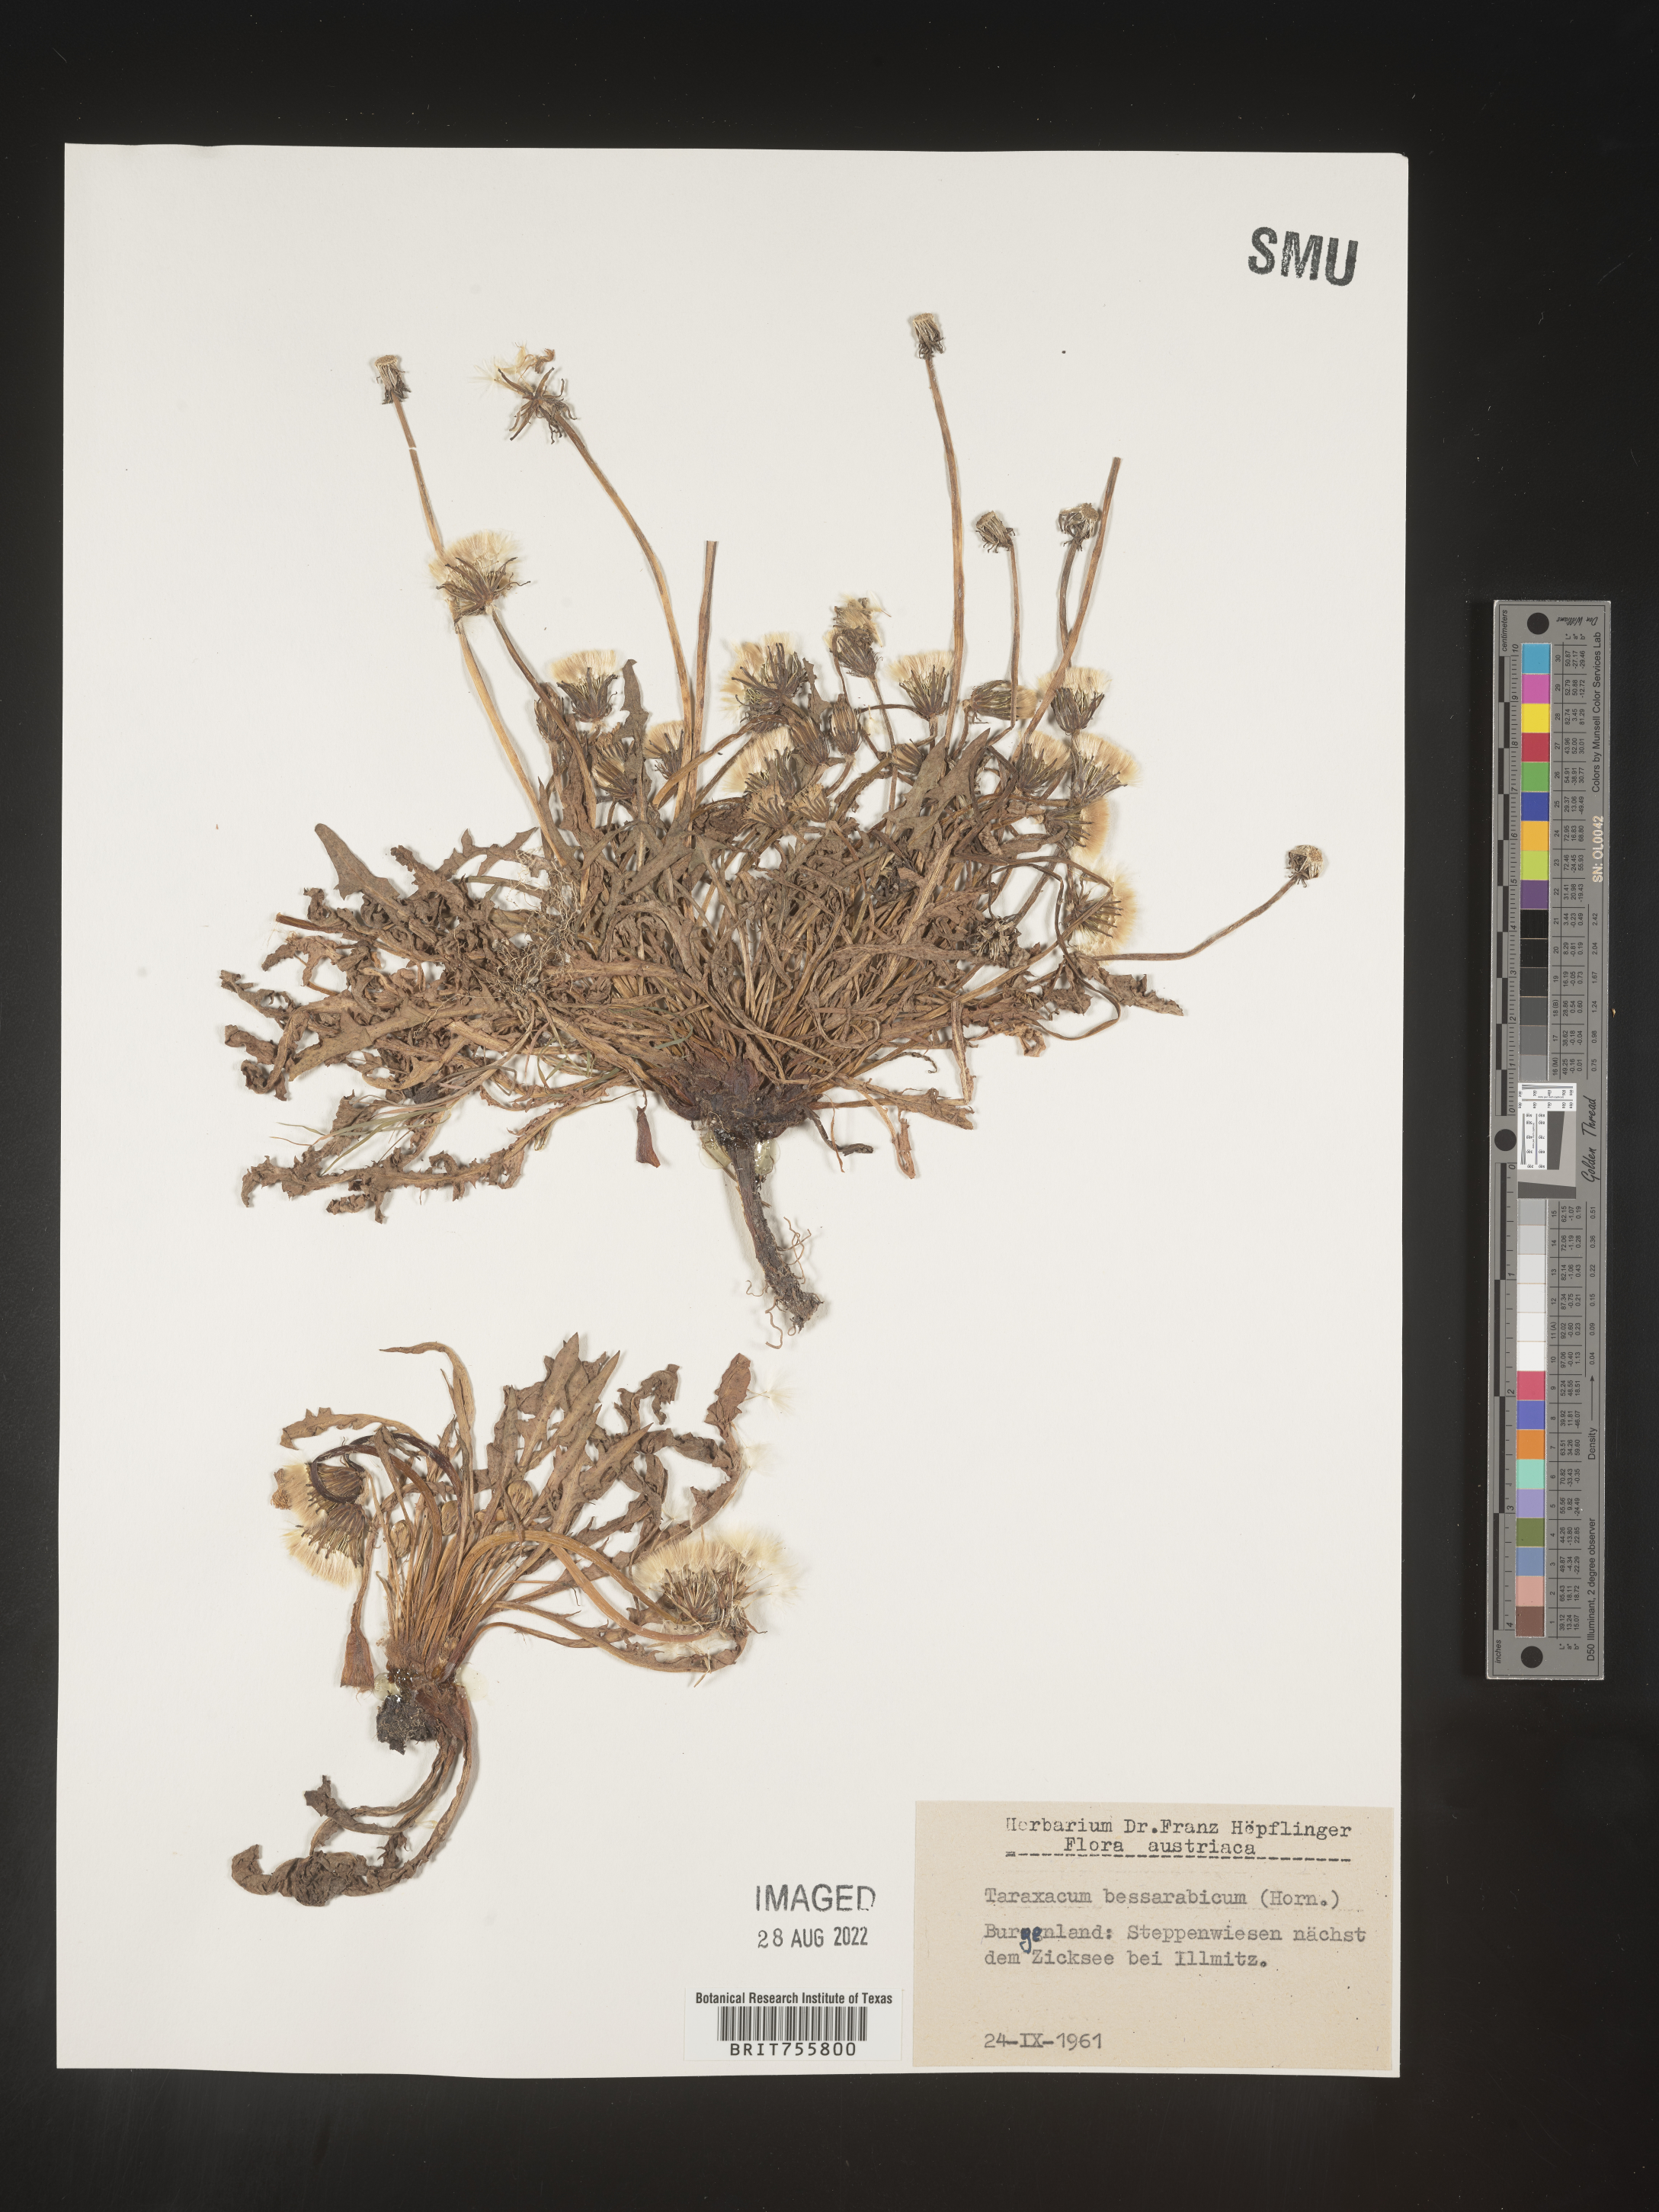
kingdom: Plantae
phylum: Tracheophyta
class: Magnoliopsida
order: Asterales
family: Asteraceae
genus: Taraxacum
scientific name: Taraxacum
